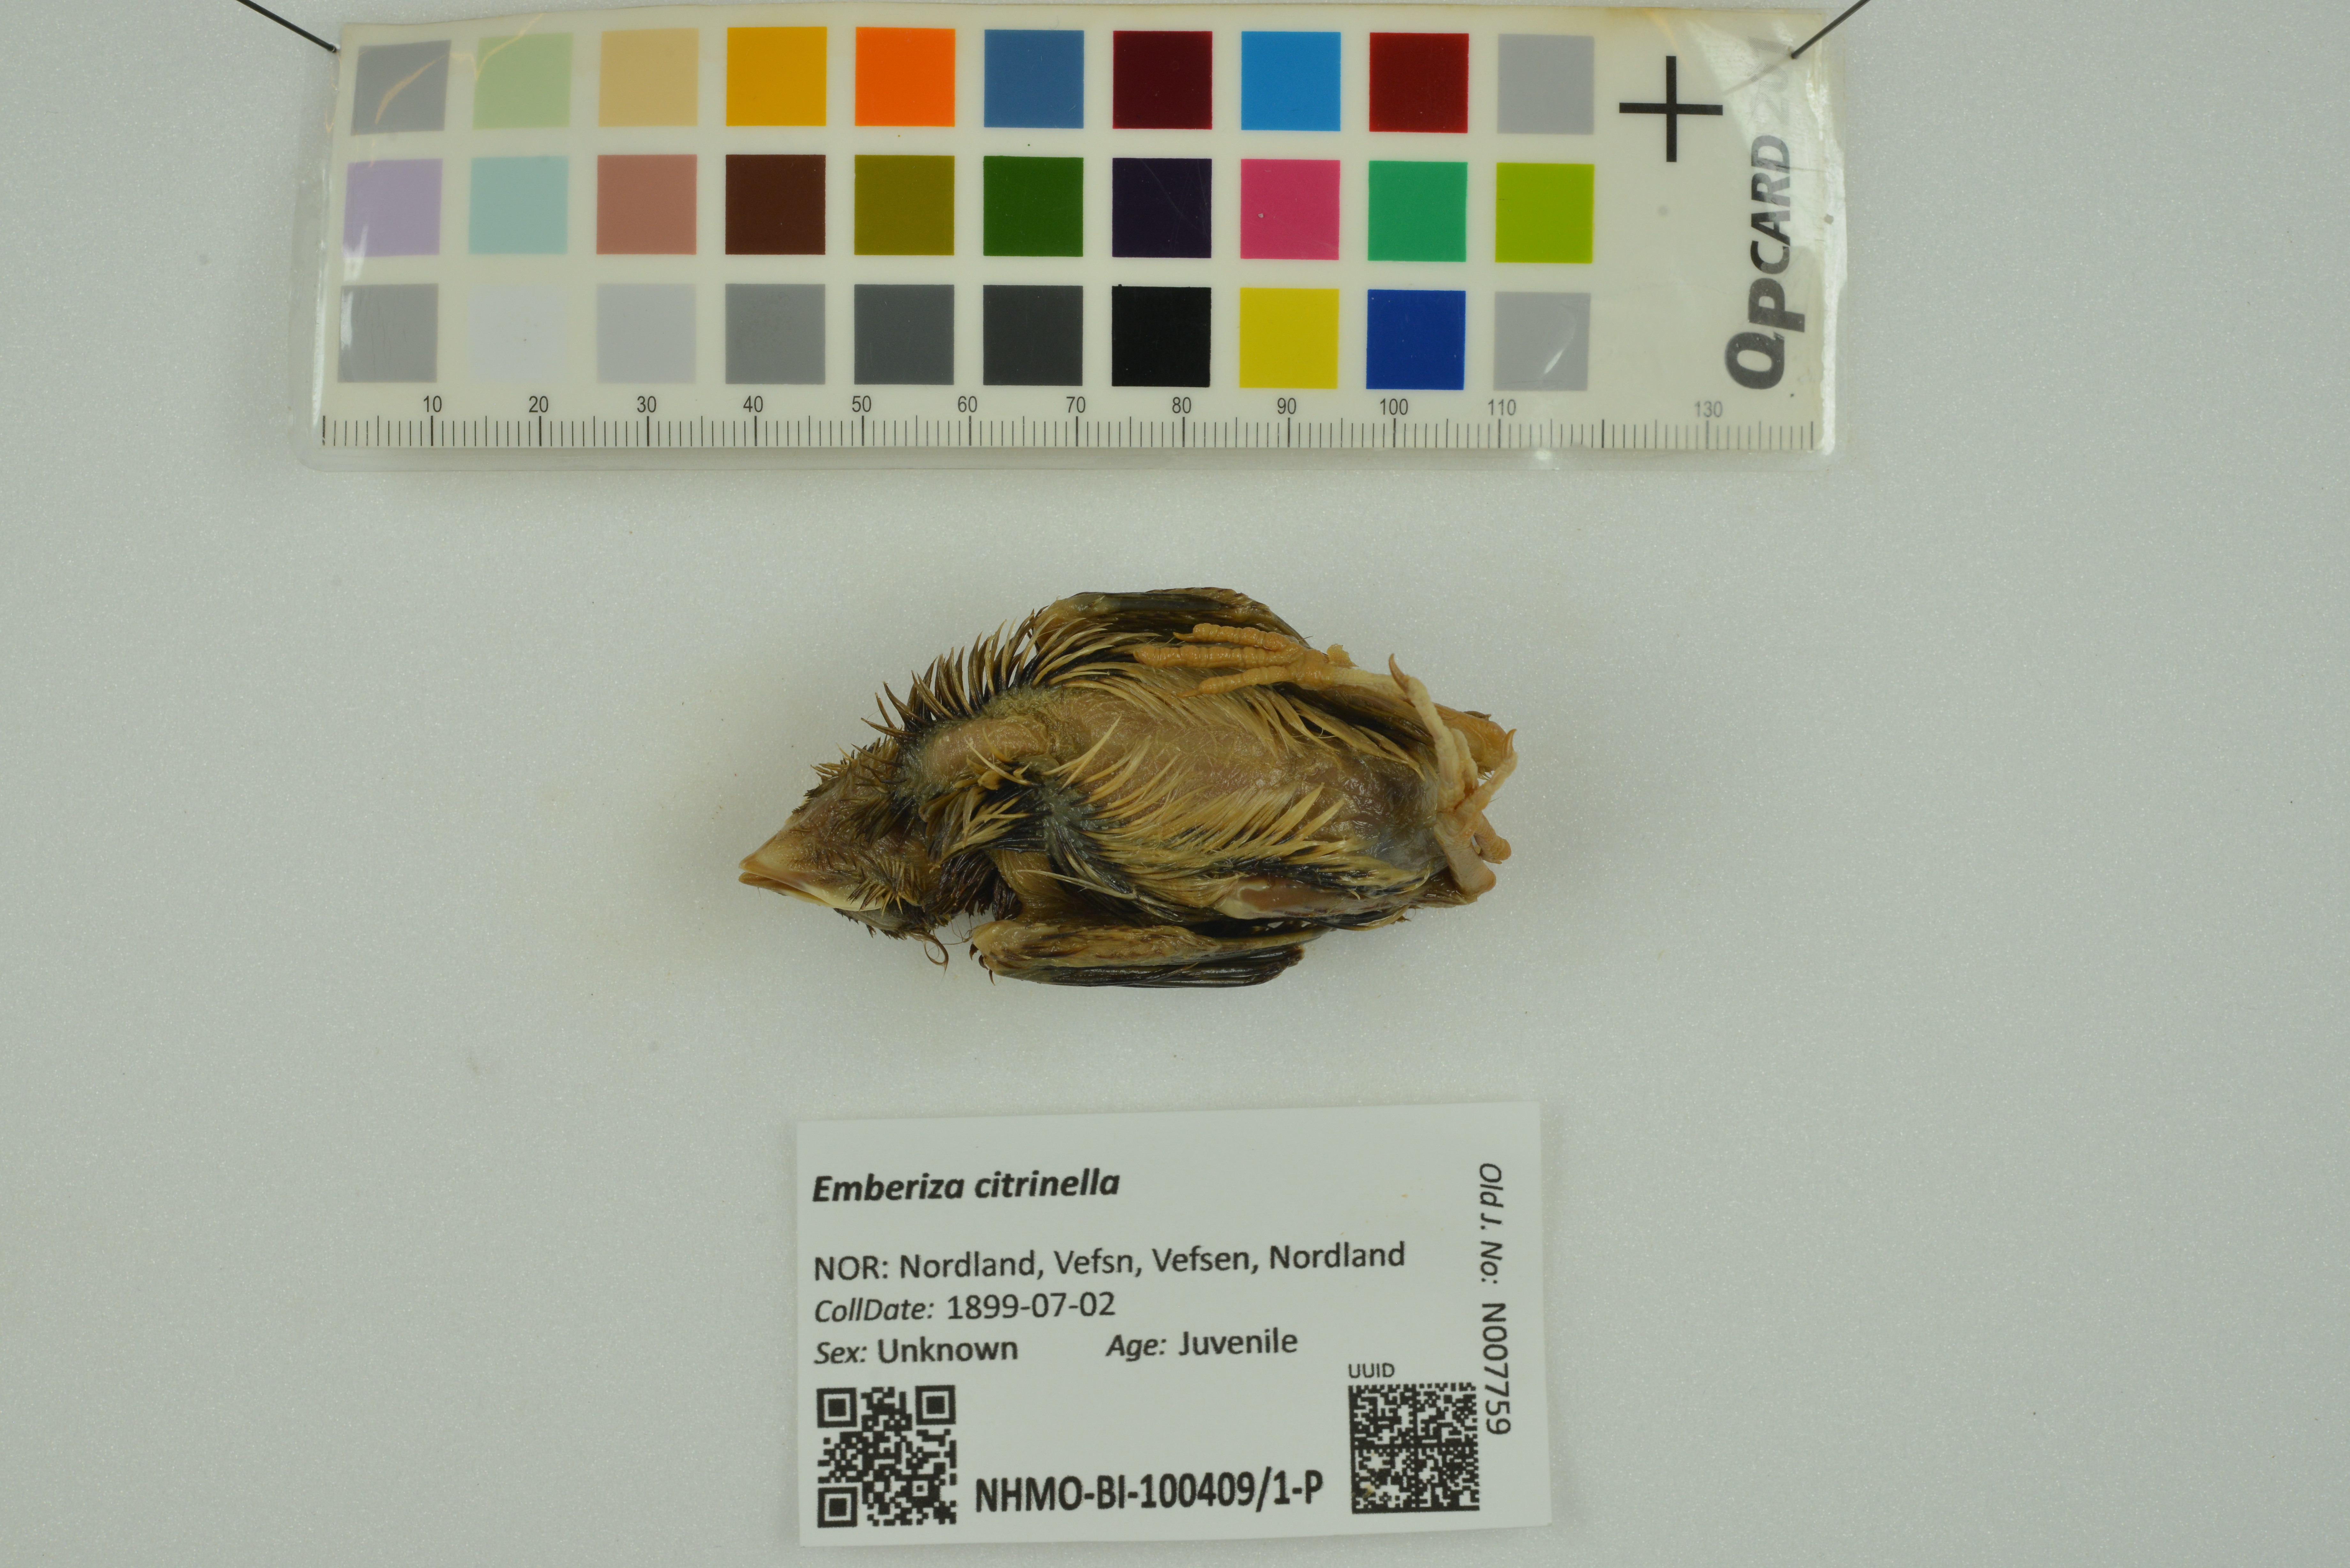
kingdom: Animalia
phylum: Chordata
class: Aves
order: Passeriformes
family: Emberizidae
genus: Emberiza
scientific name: Emberiza citrinella
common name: Yellowhammer
